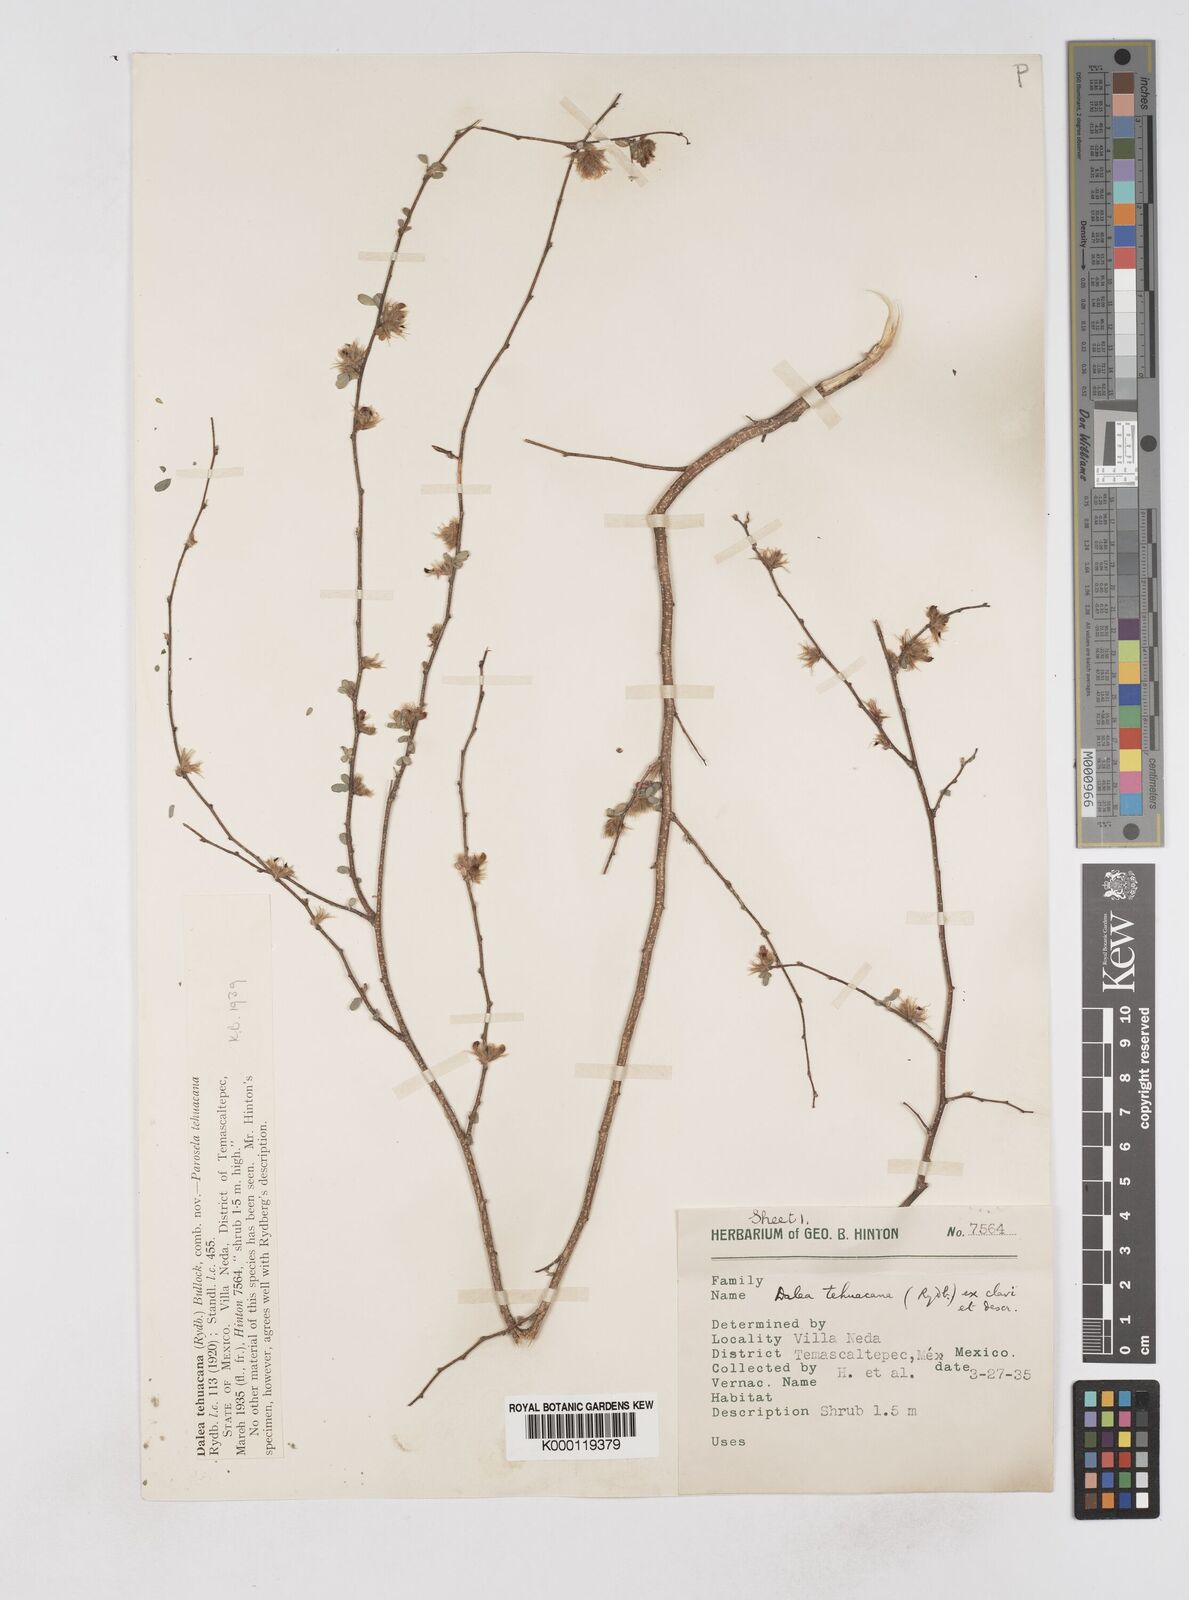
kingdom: Plantae
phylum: Tracheophyta
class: Magnoliopsida
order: Fabales
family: Fabaceae
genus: Dalea
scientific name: Dalea carthagenensis
